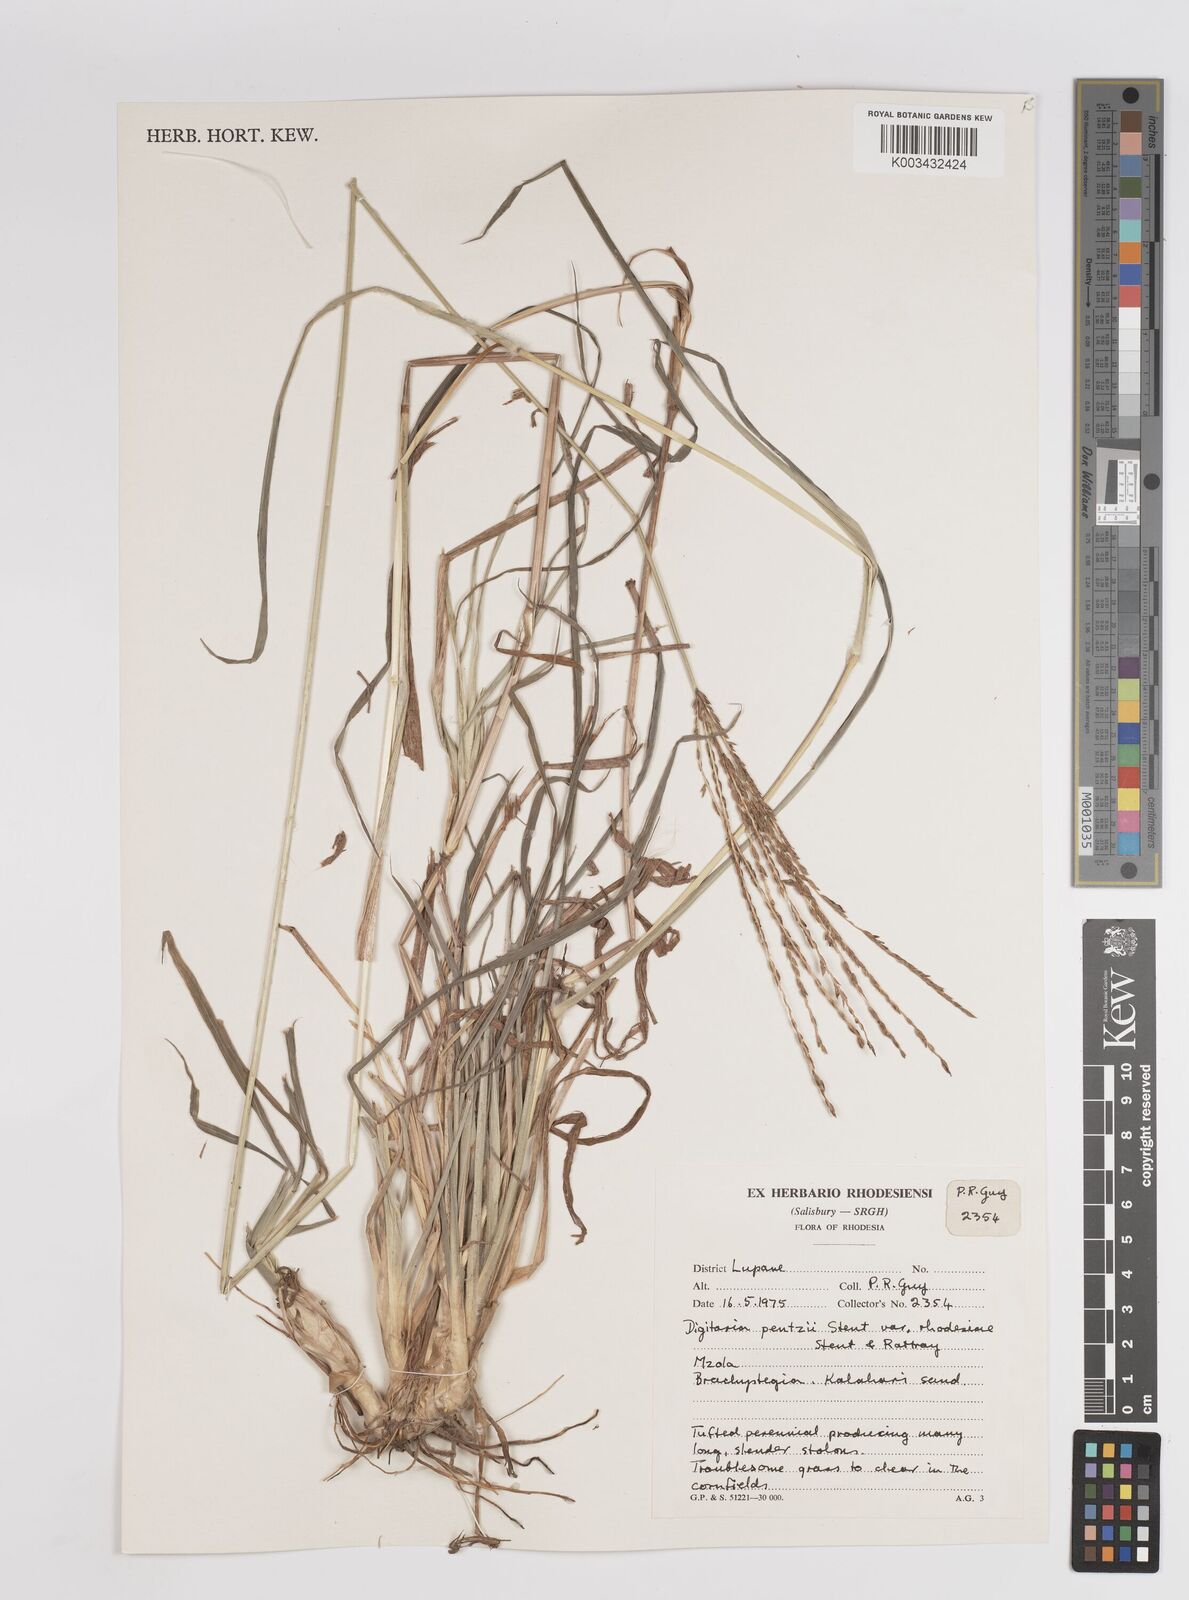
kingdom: Plantae
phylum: Tracheophyta
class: Liliopsida
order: Poales
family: Poaceae
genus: Digitaria
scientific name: Digitaria eriantha
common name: Digitgrass
